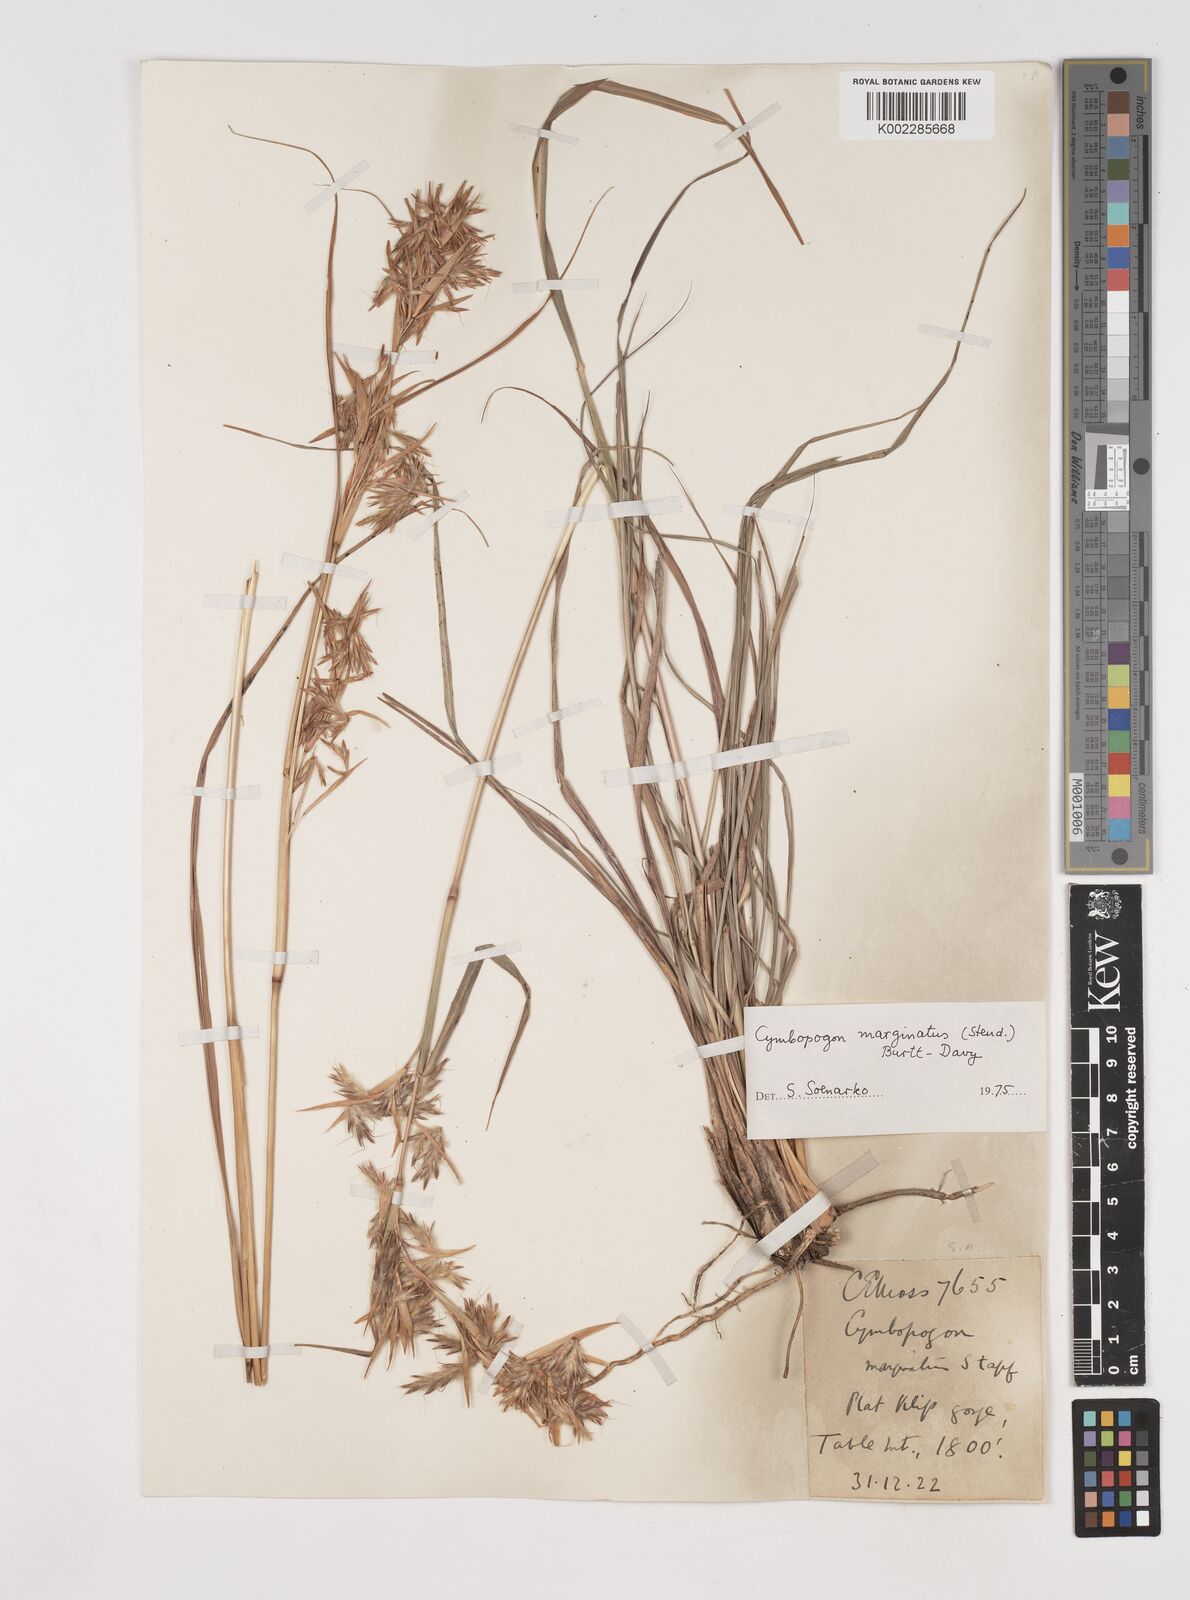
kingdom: Plantae
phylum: Tracheophyta
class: Liliopsida
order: Poales
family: Poaceae
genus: Cymbopogon
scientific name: Cymbopogon marginatus
